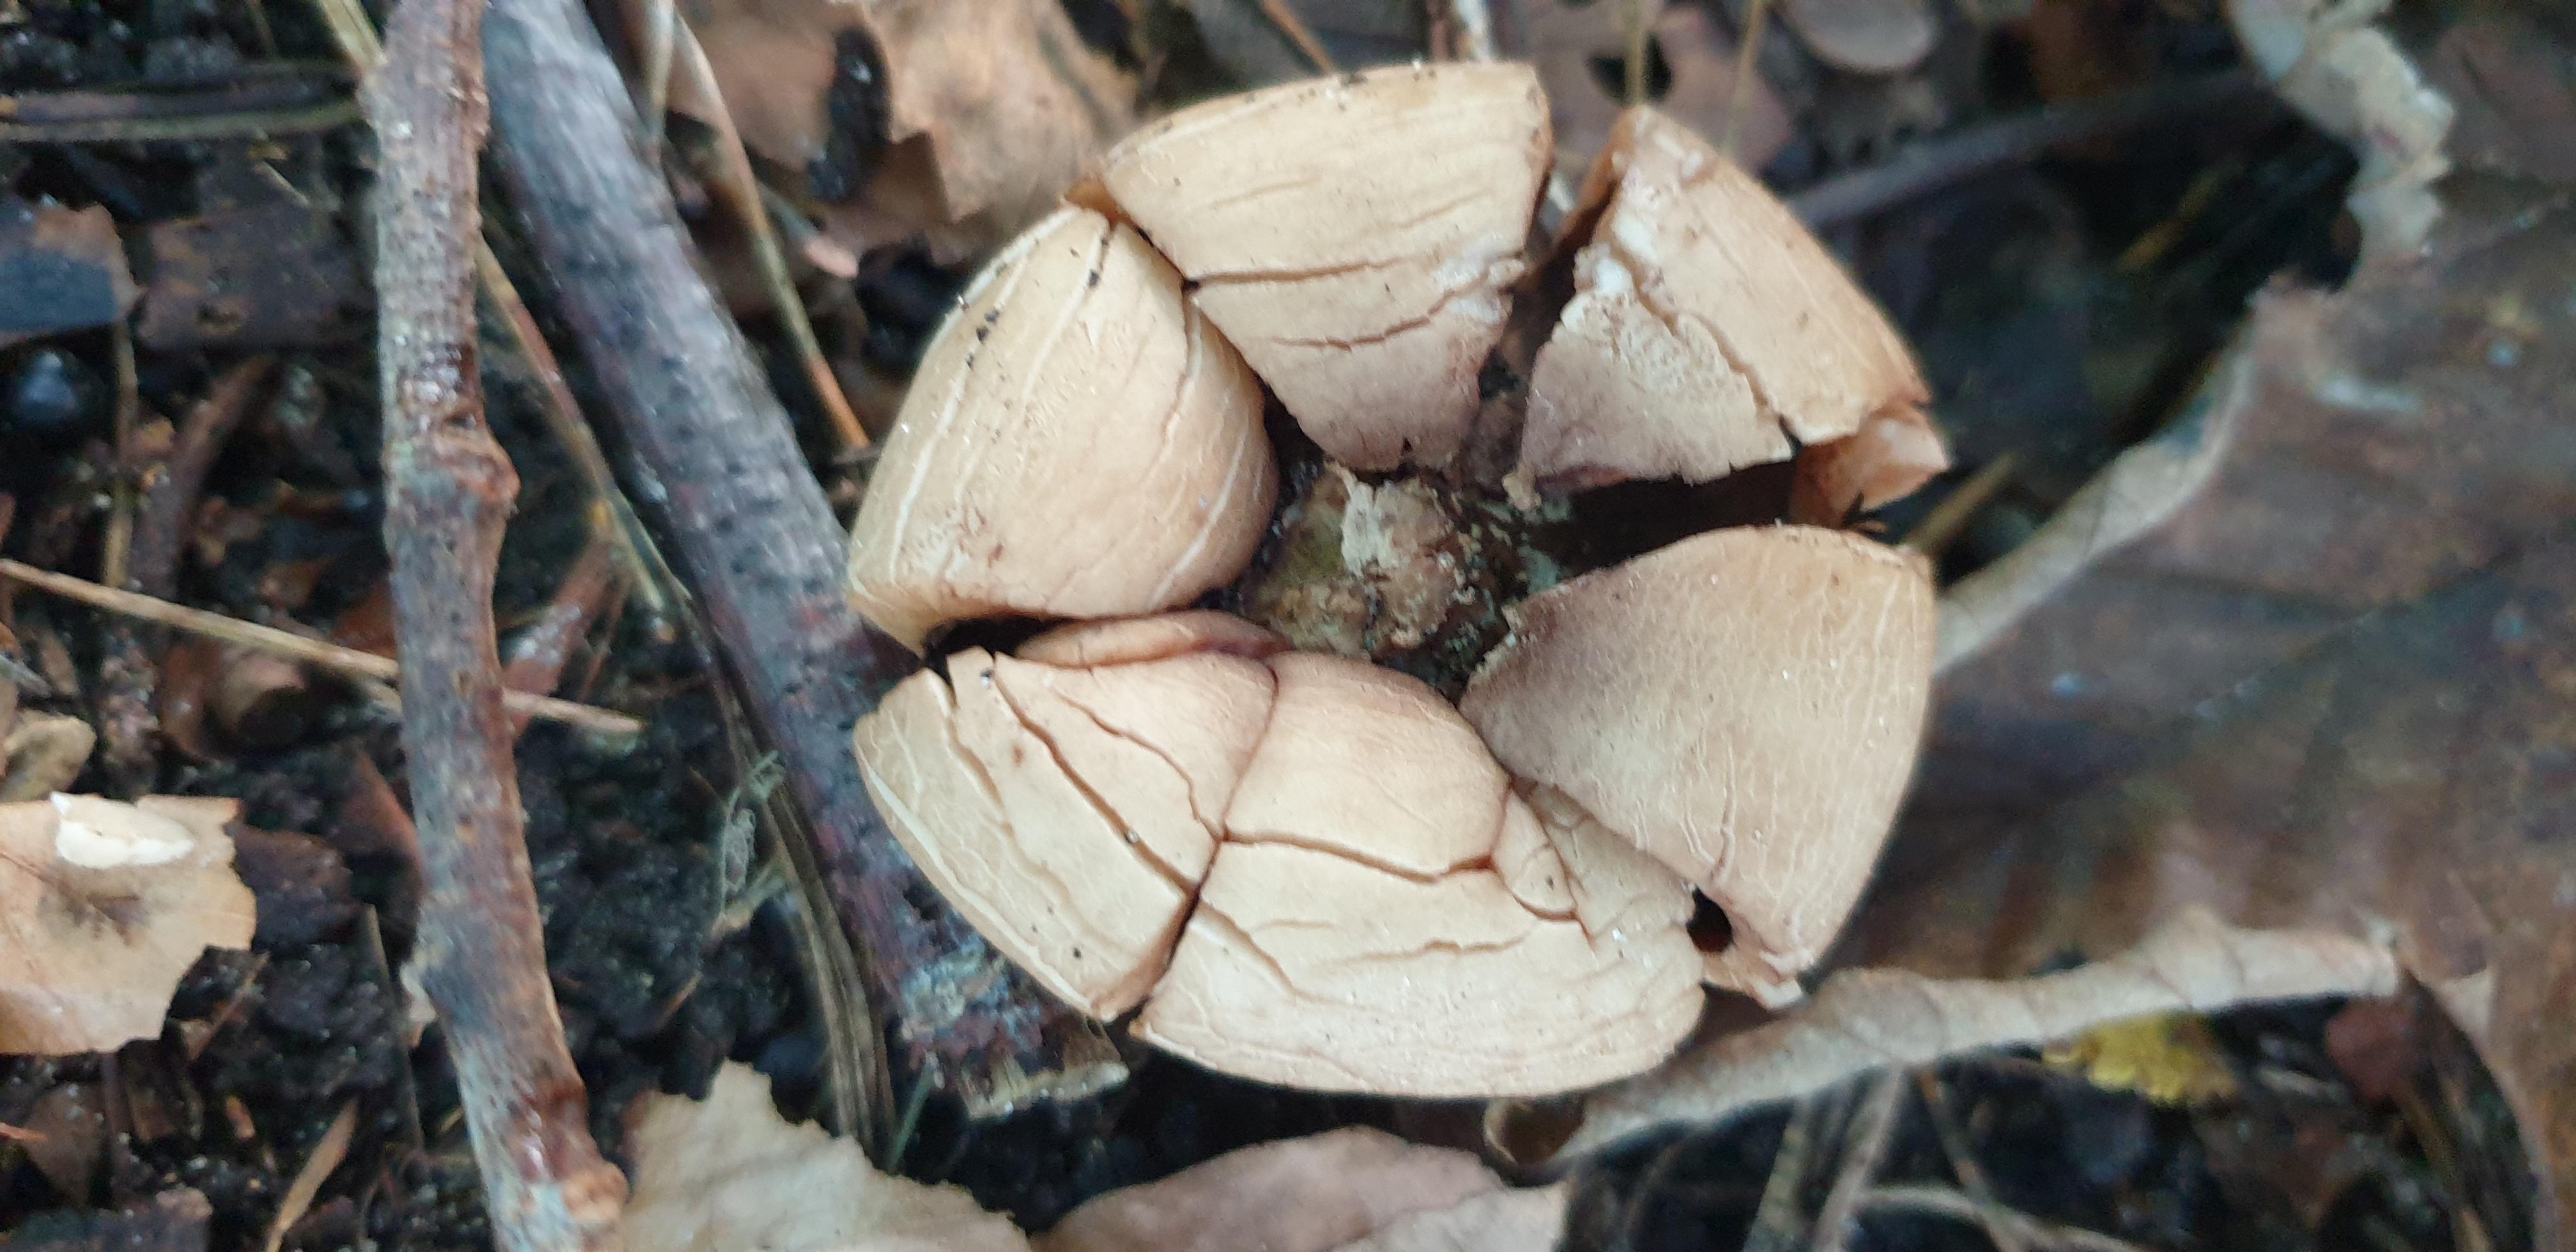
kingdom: Fungi
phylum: Basidiomycota
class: Agaricomycetes
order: Geastrales
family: Geastraceae
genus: Geastrum
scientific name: Geastrum michelianum
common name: kødet stjernebold
